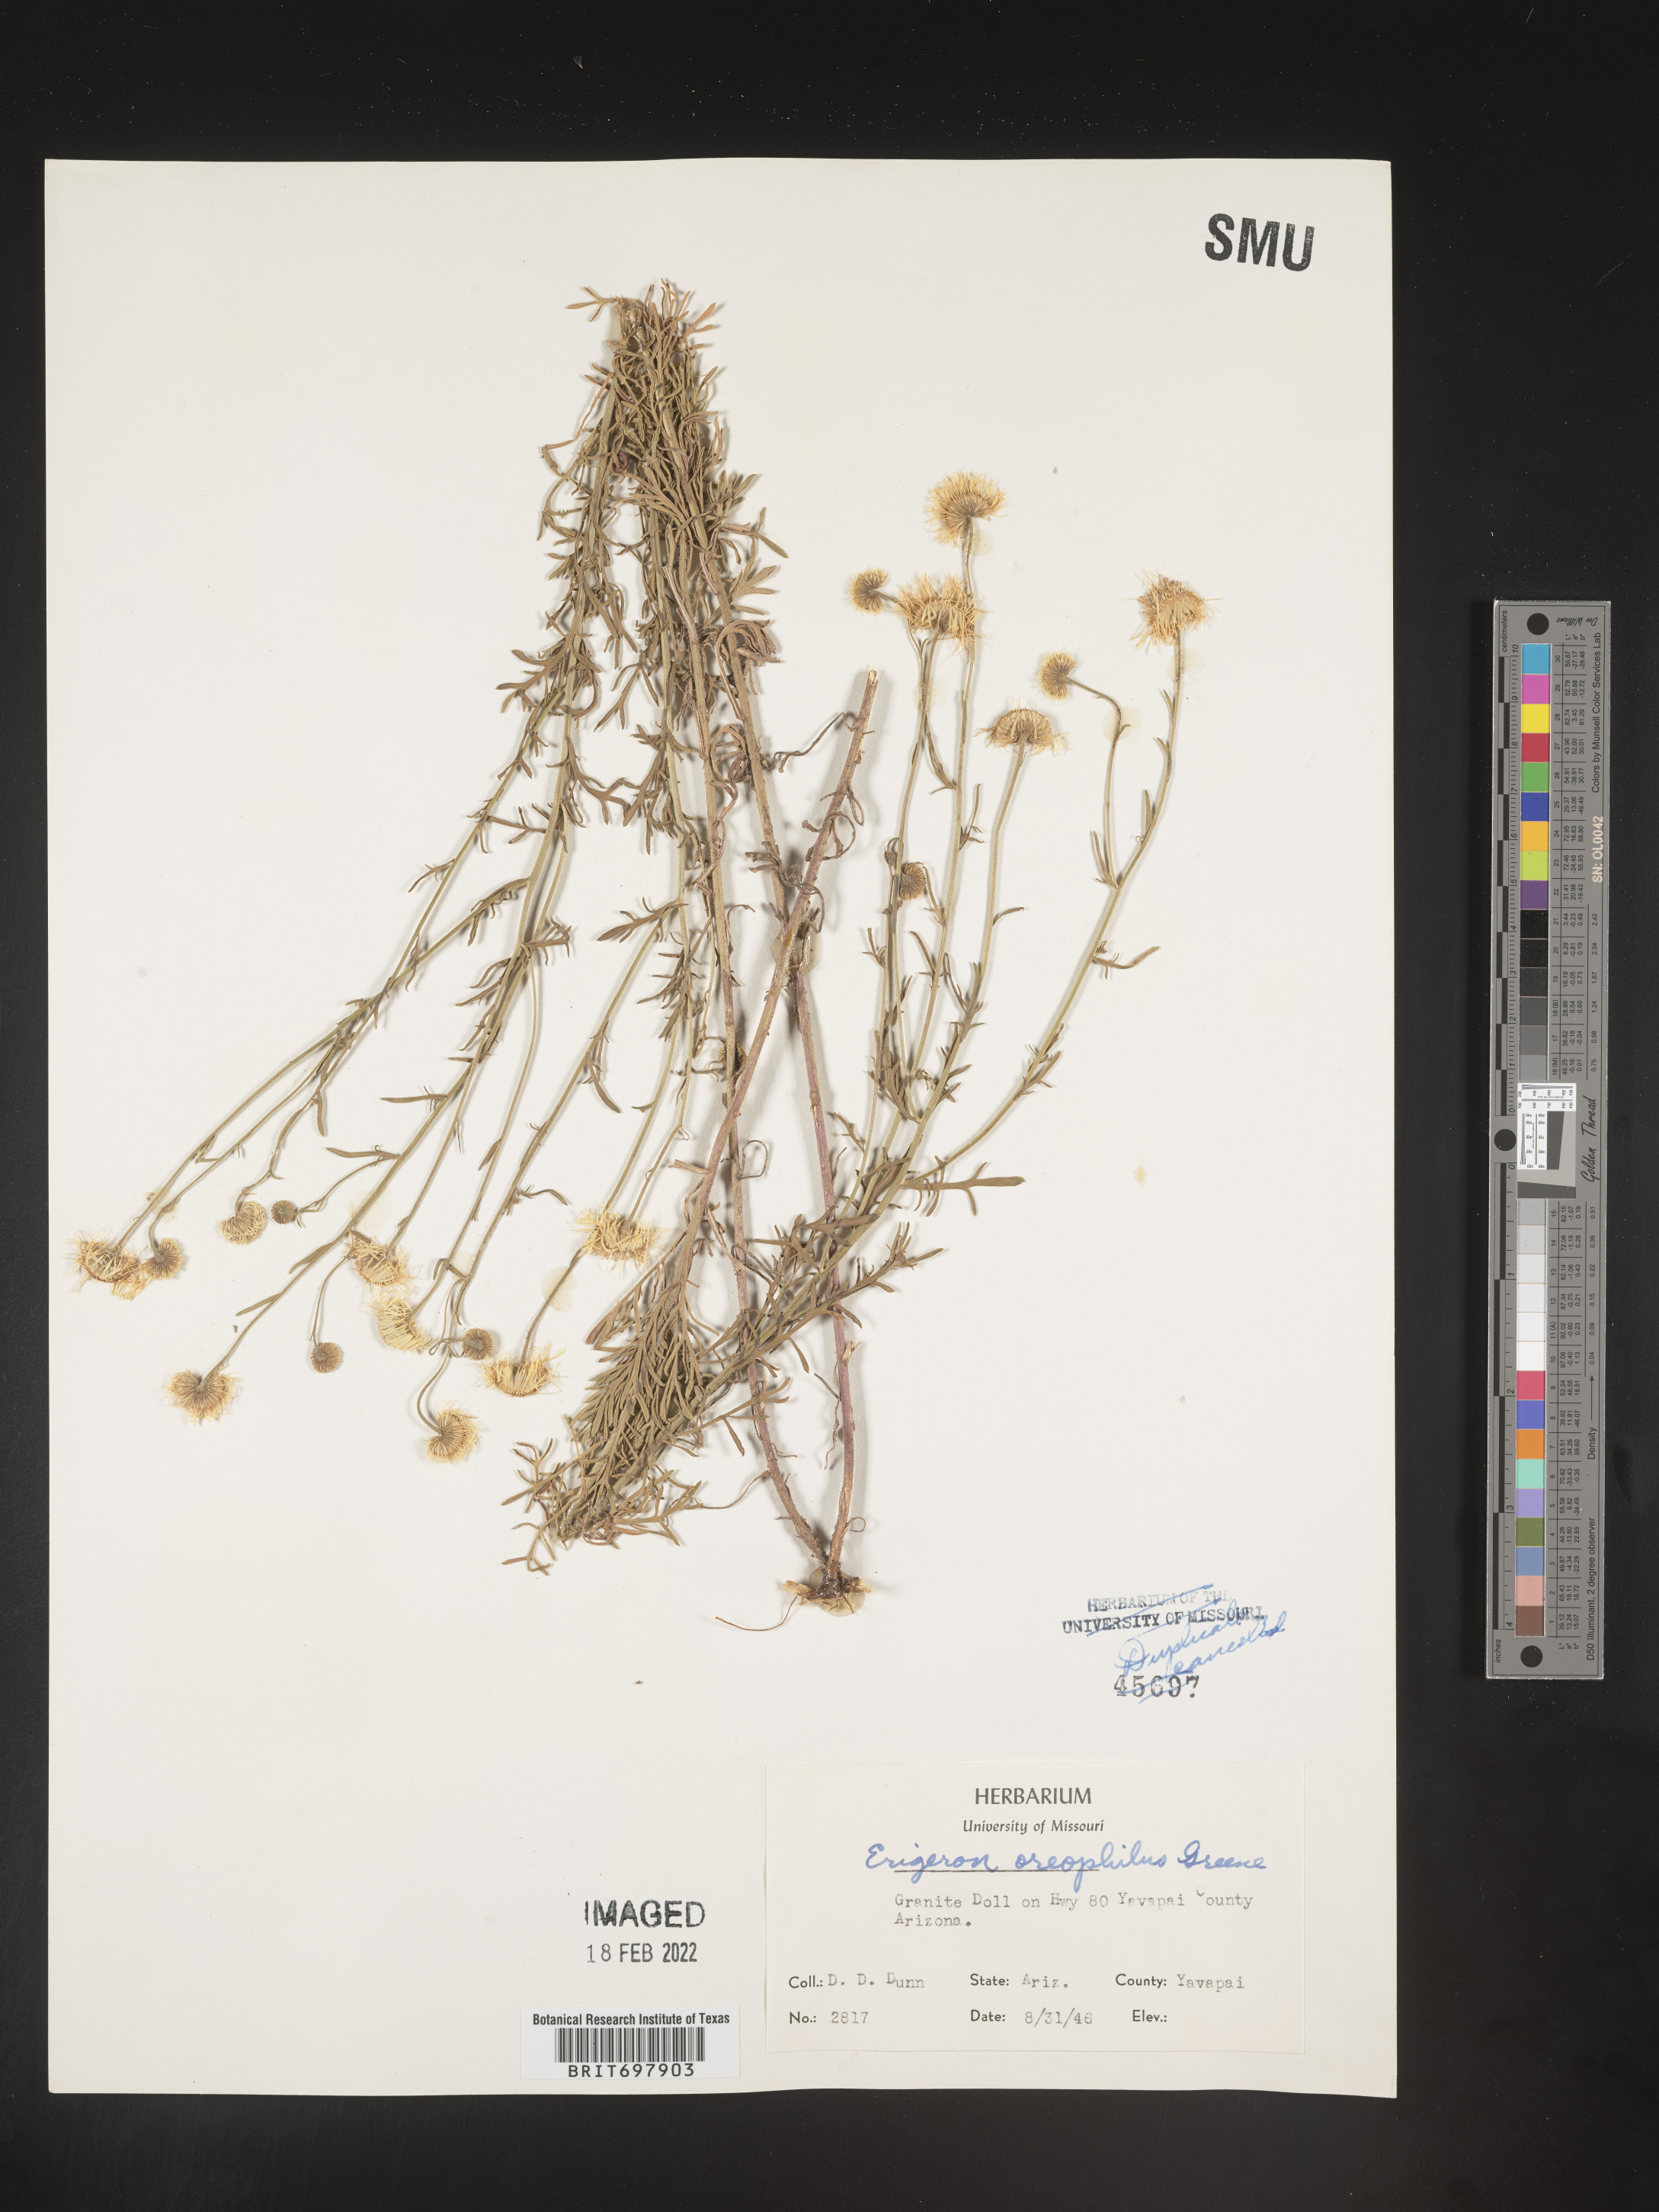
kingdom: Plantae
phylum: Tracheophyta
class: Magnoliopsida
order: Asterales
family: Asteraceae
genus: Erigeron
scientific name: Erigeron oreophilus
